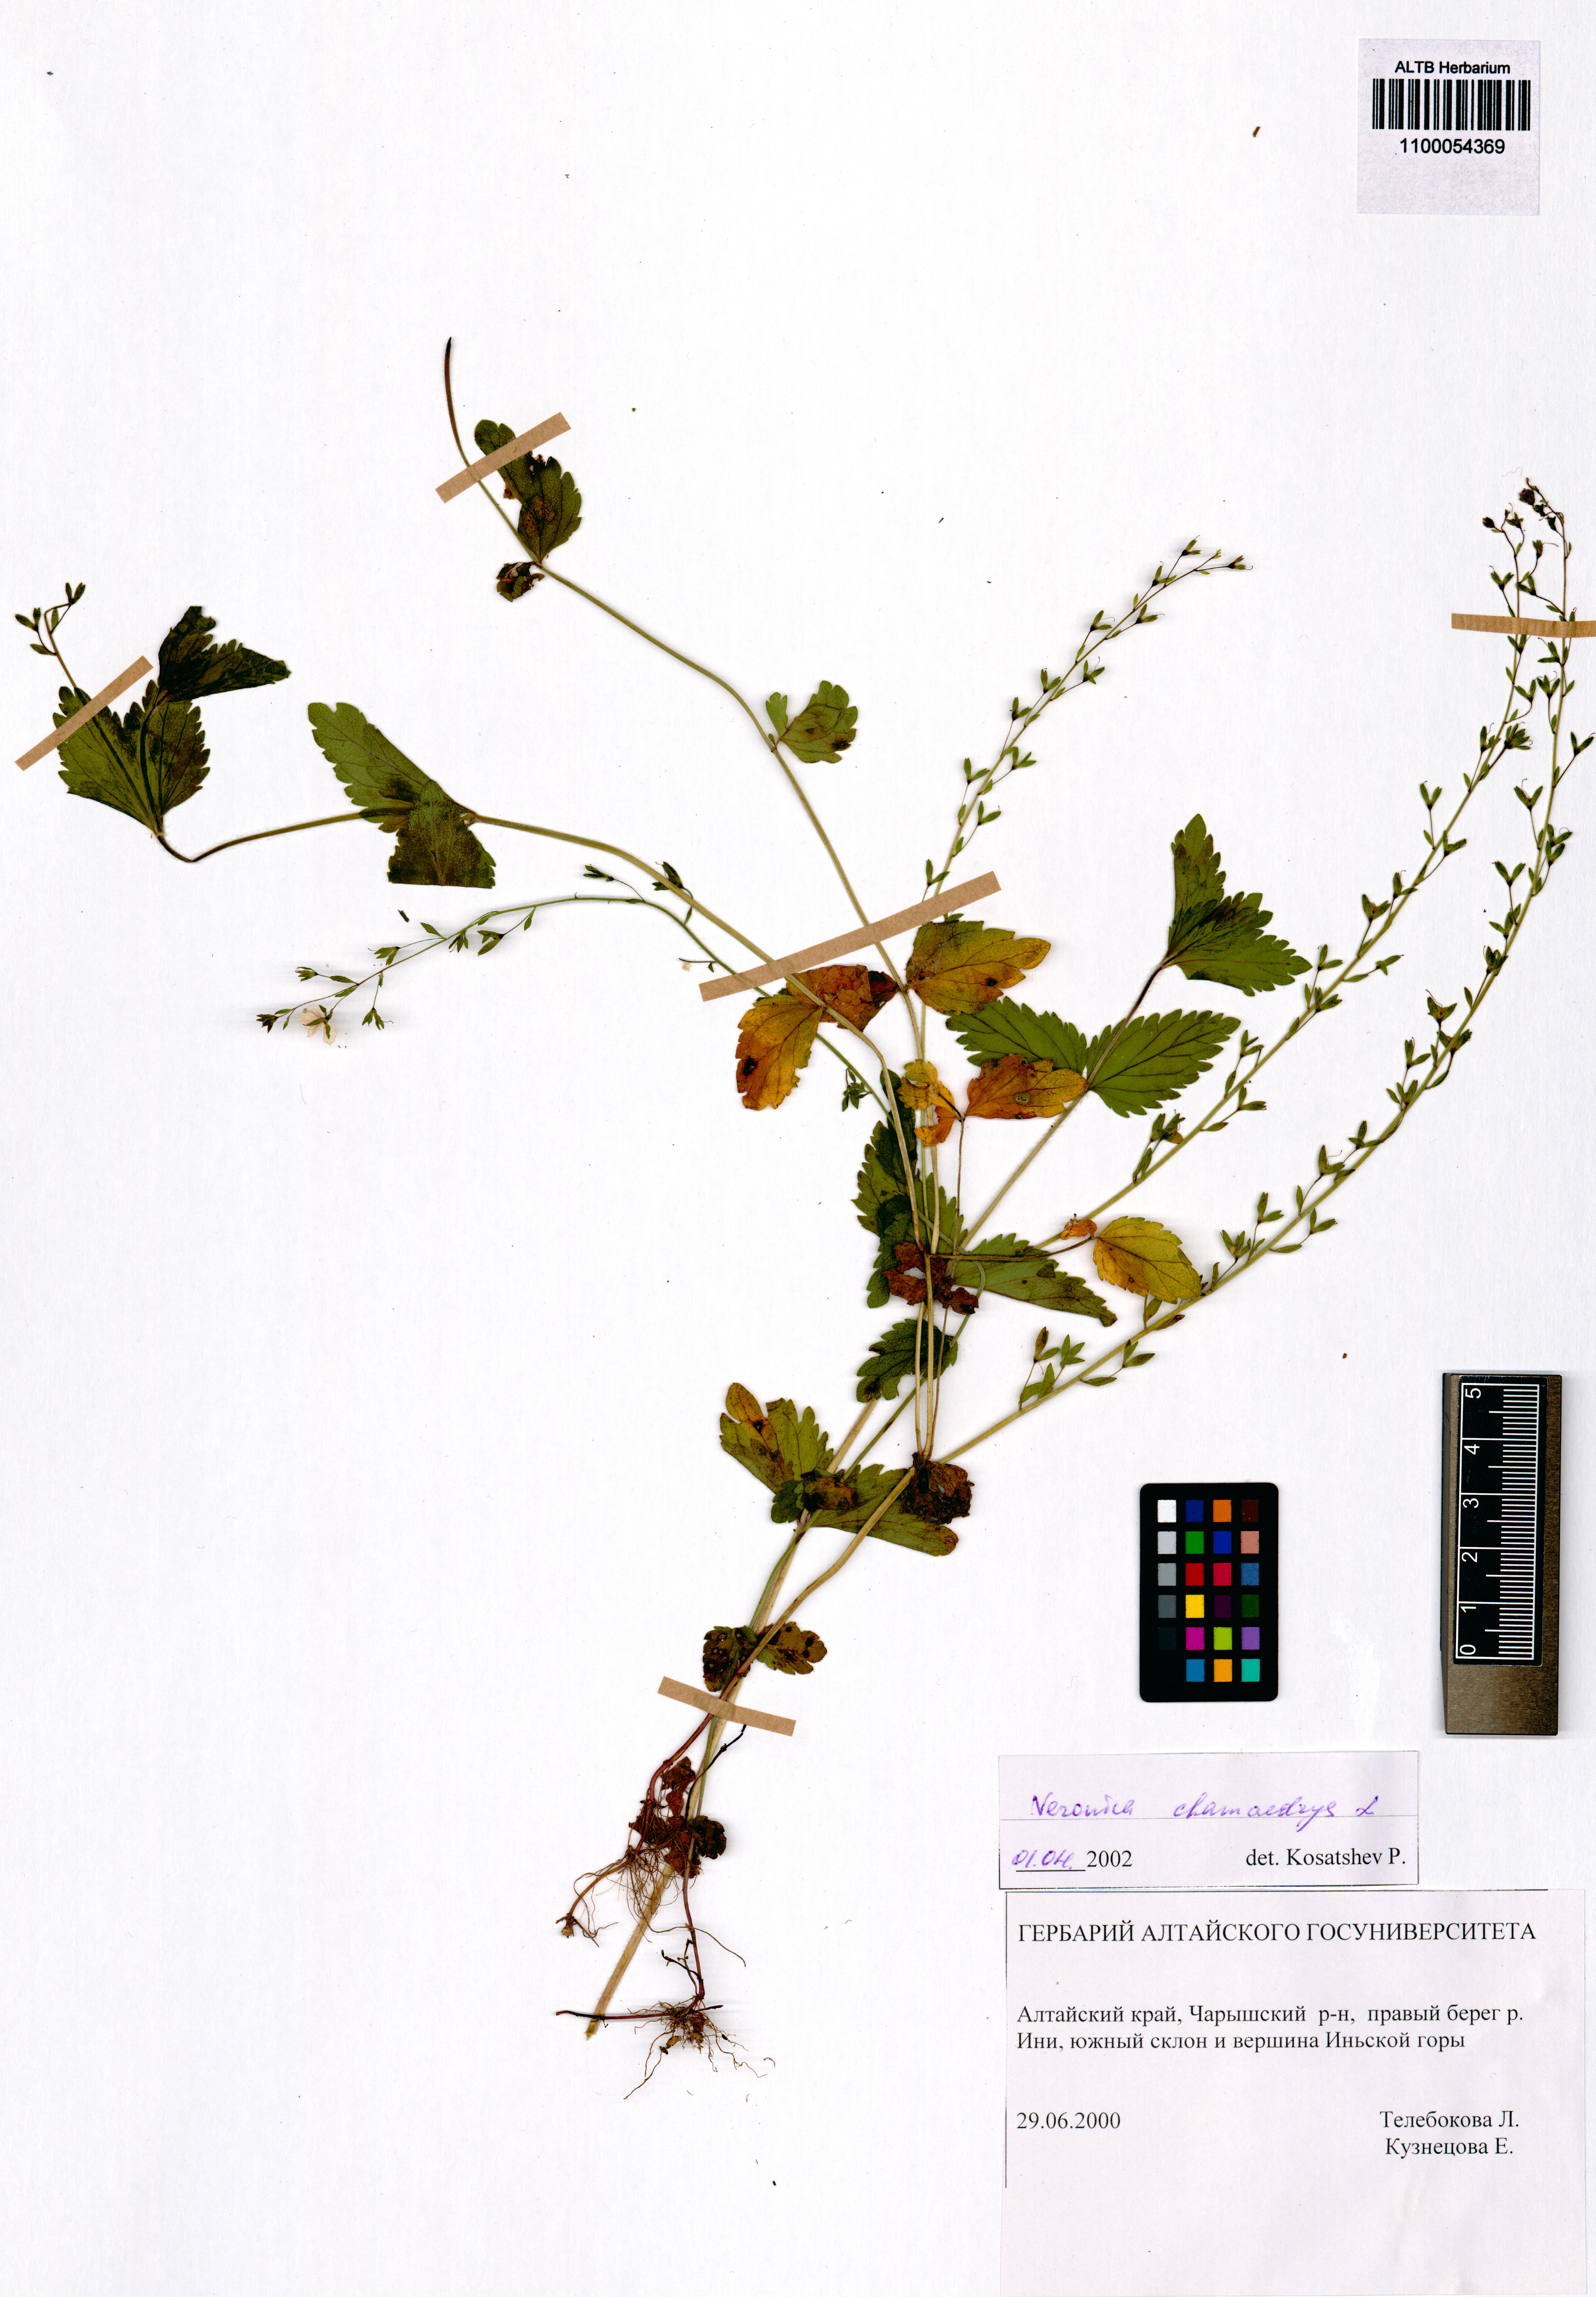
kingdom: Plantae
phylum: Tracheophyta
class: Magnoliopsida
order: Lamiales
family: Plantaginaceae
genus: Veronica
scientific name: Veronica chamaedrys
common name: Germander speedwell
